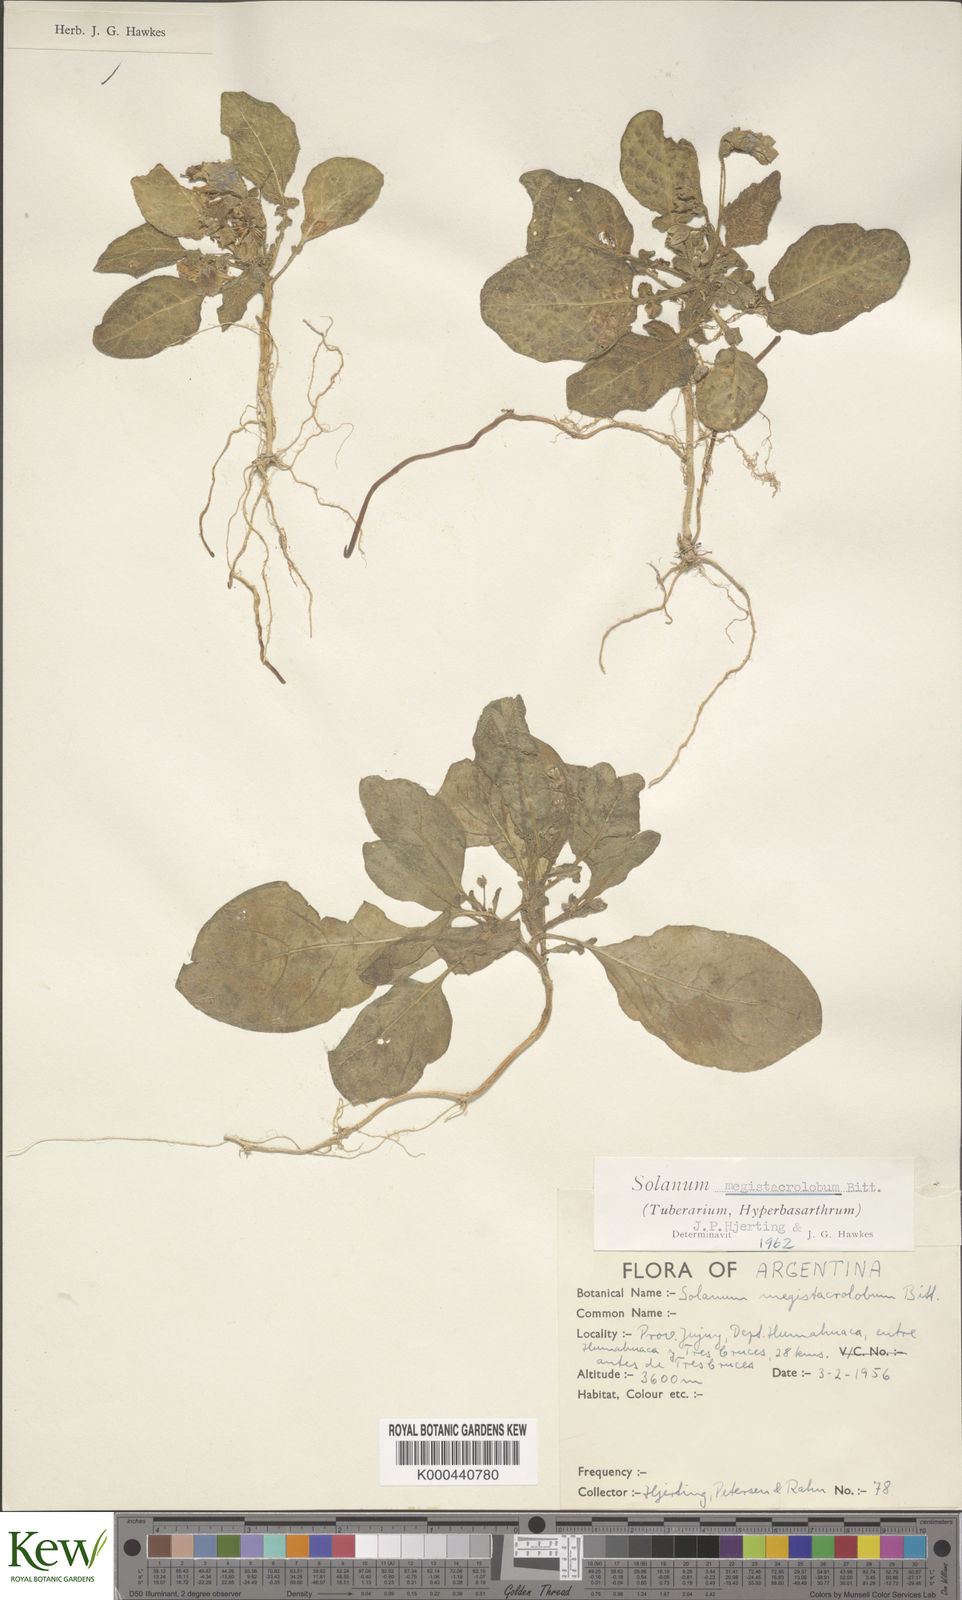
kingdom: Plantae
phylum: Tracheophyta
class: Magnoliopsida
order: Solanales
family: Solanaceae
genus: Solanum
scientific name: Solanum boliviense
